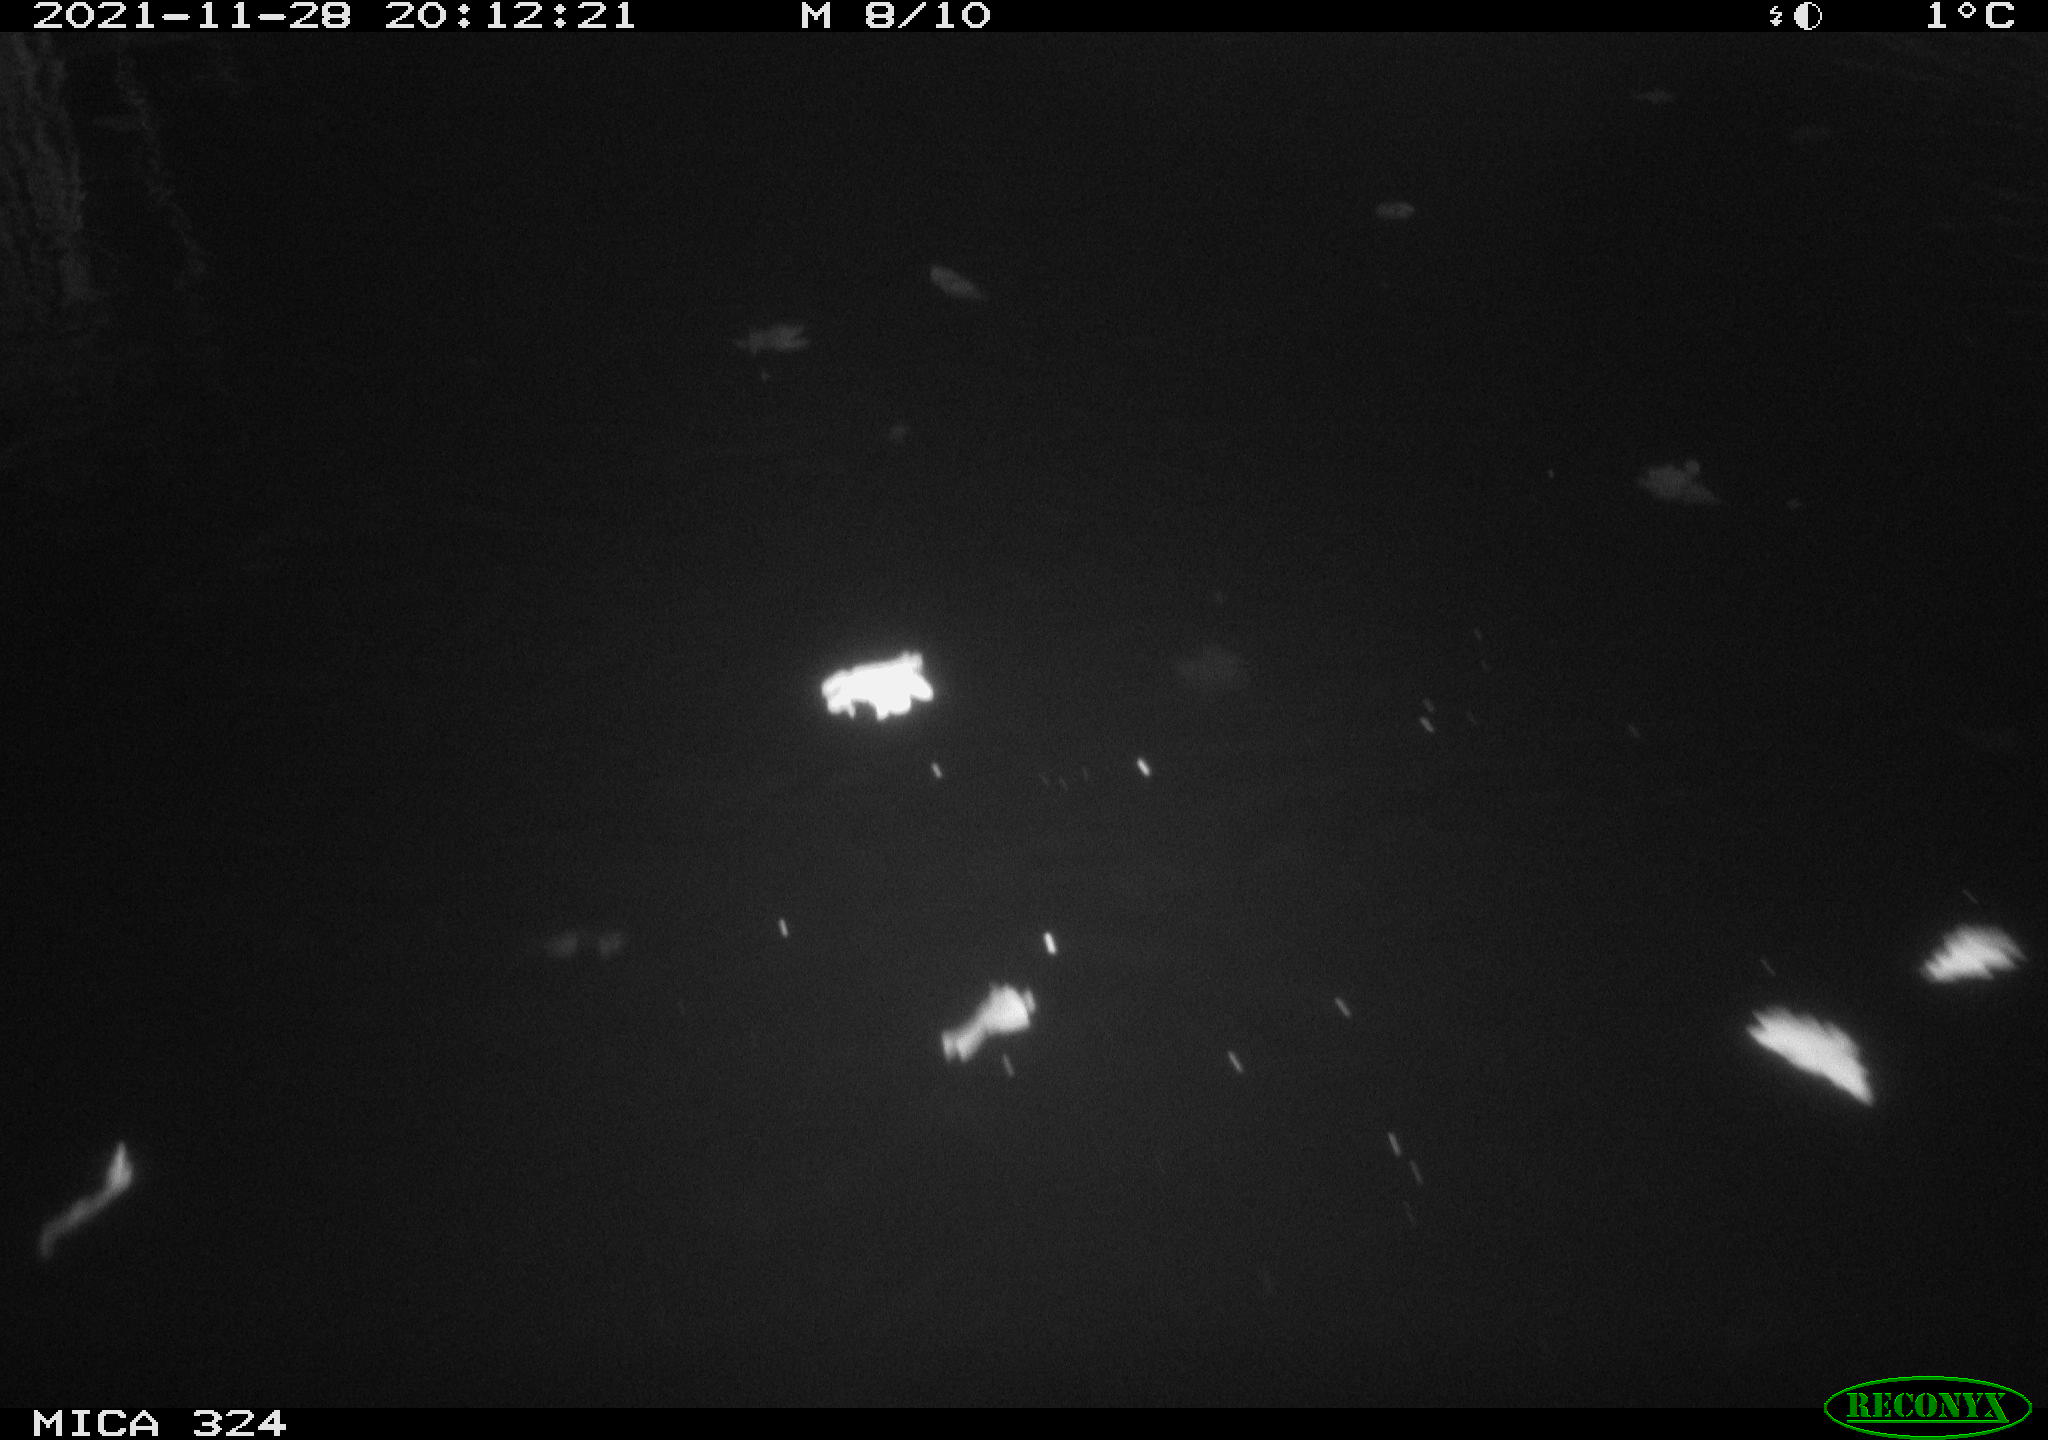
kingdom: Animalia
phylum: Chordata
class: Mammalia
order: Rodentia
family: Cricetidae
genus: Ondatra
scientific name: Ondatra zibethicus
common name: Muskrat
